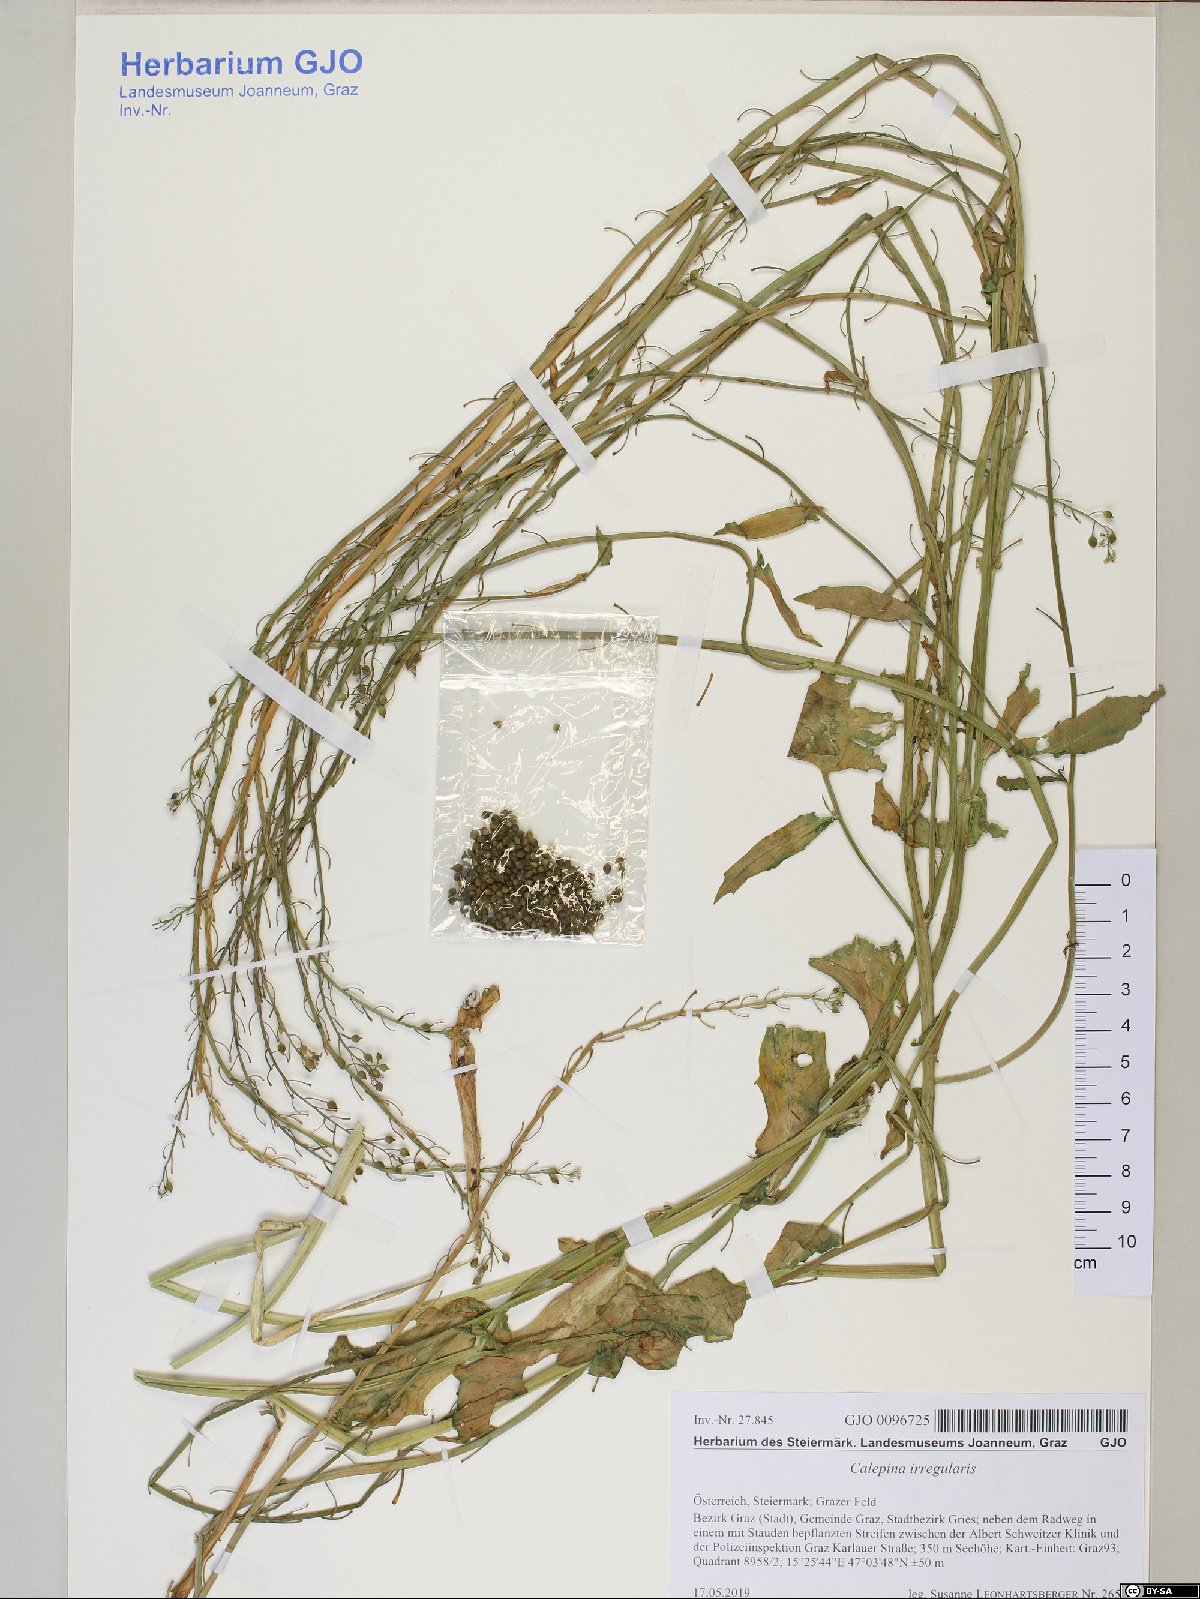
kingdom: Plantae
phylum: Tracheophyta
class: Magnoliopsida
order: Brassicales
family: Brassicaceae
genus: Calepina
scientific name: Calepina irregularis
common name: White ballmustard
